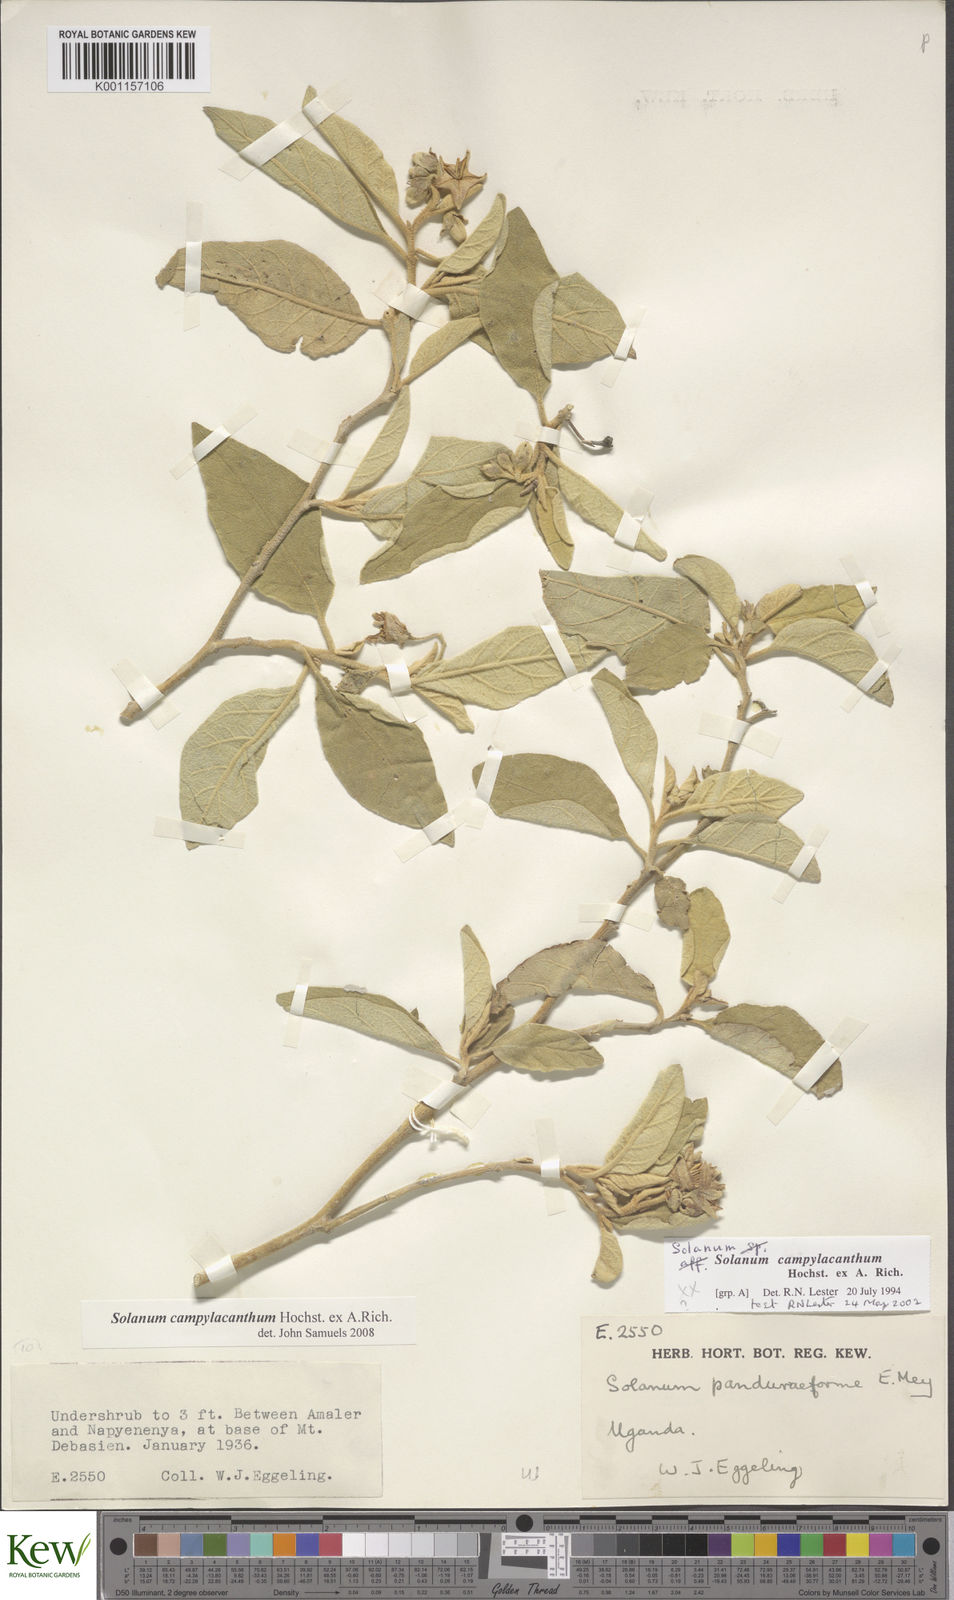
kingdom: Plantae
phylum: Tracheophyta
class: Magnoliopsida
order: Solanales
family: Solanaceae
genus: Solanum
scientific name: Solanum campylacanthum
